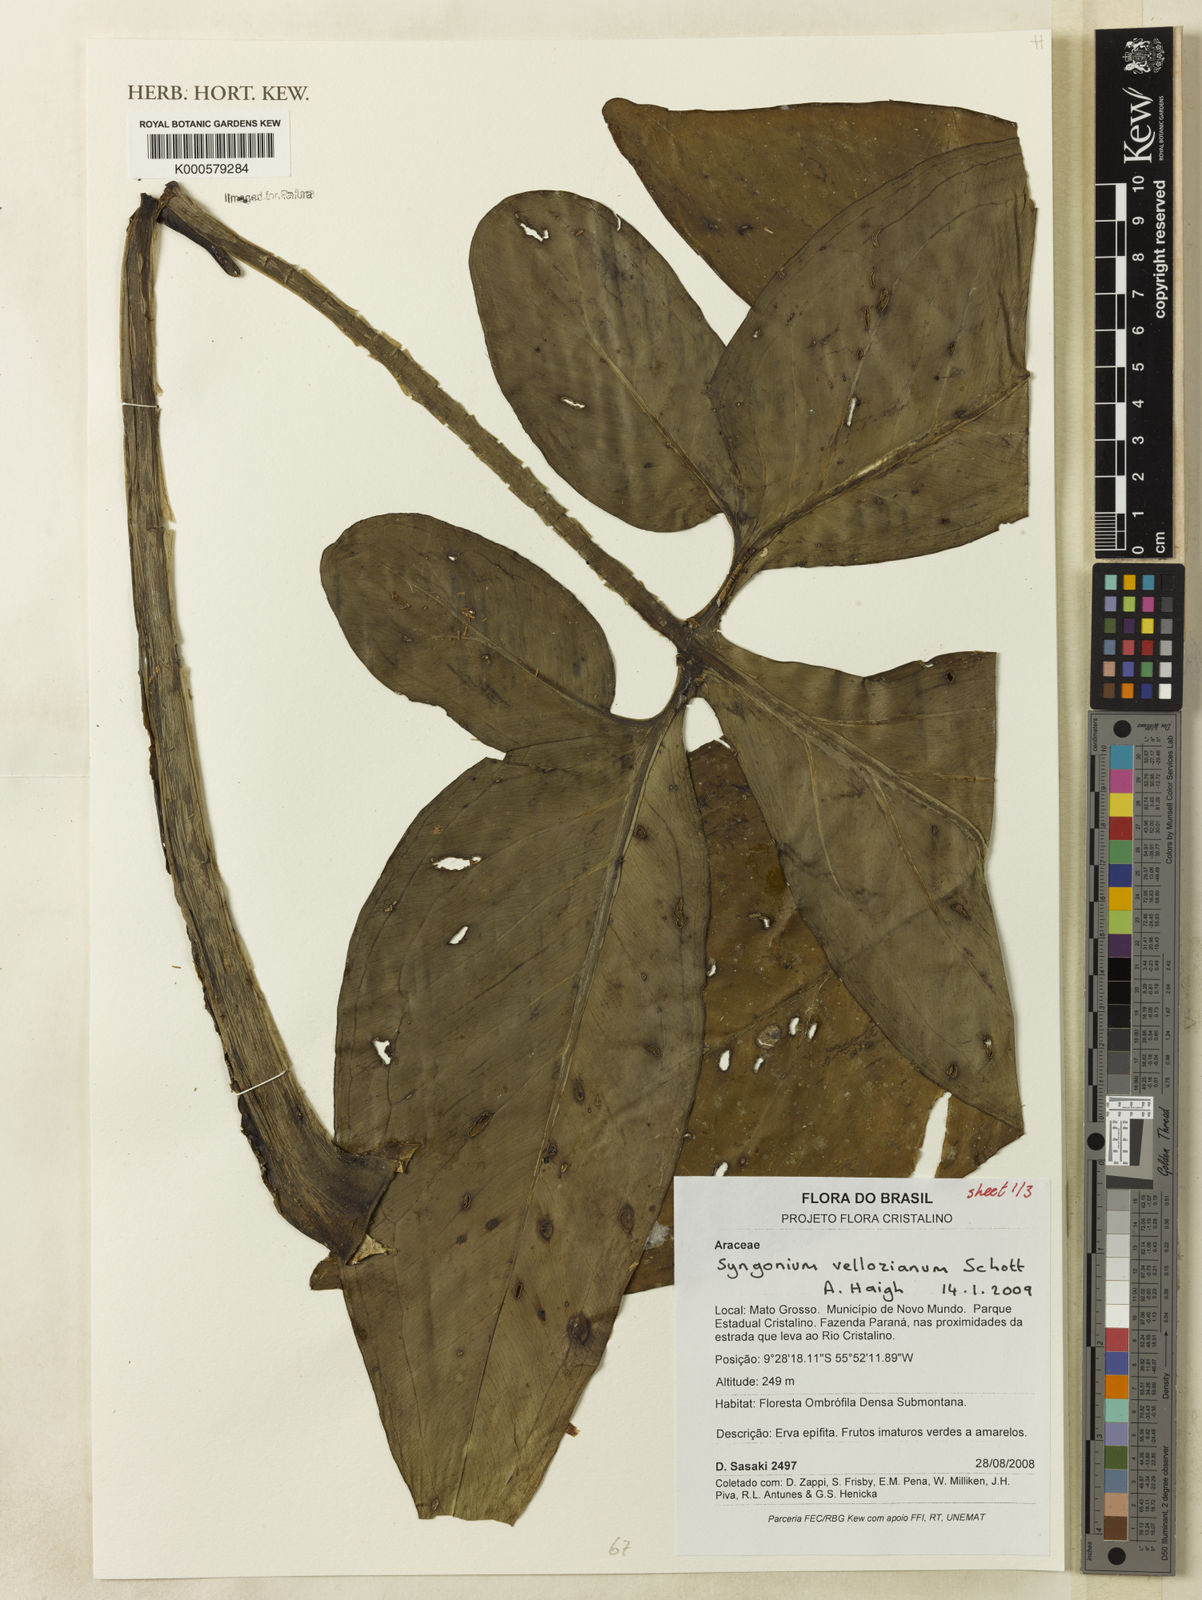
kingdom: Plantae
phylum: Tracheophyta
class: Liliopsida
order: Alismatales
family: Araceae
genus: Syngonium
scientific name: Syngonium podophyllum
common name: American evergreen
